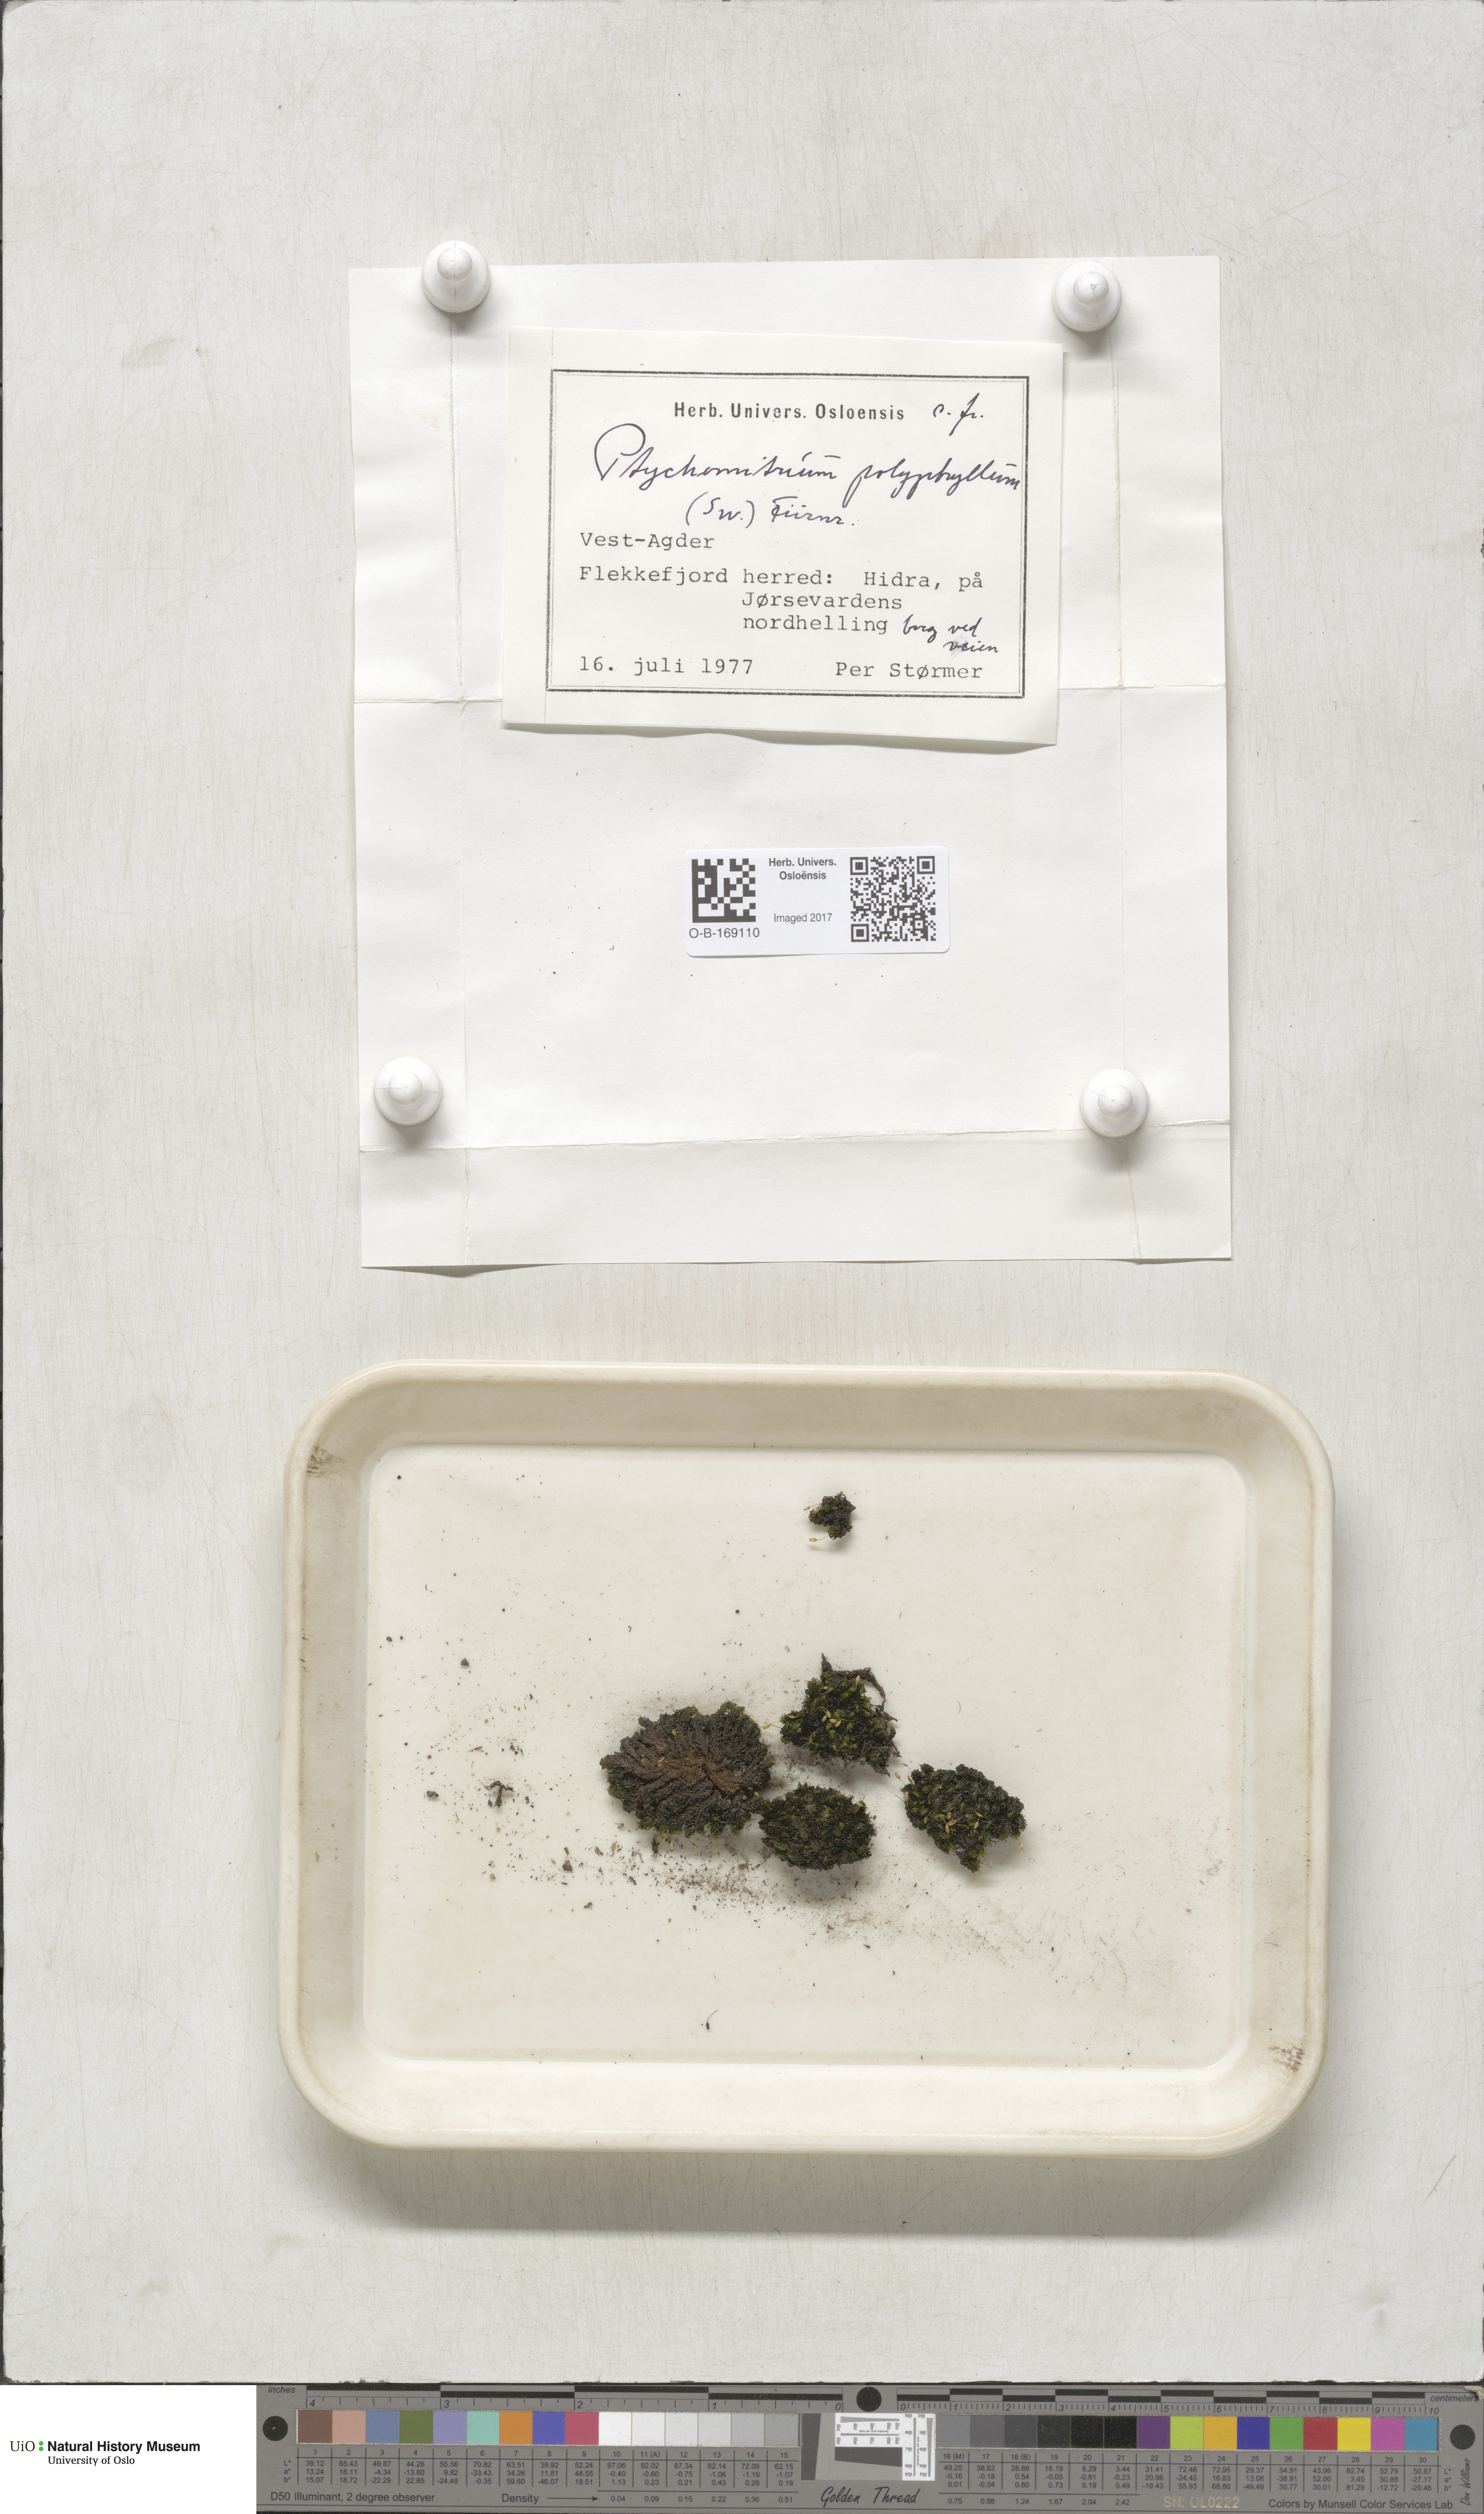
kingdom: Plantae
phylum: Bryophyta
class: Bryopsida
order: Grimmiales
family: Ptychomitriaceae
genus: Ptychomitrium
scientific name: Ptychomitrium polyphyllum
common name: Greater pincushion
